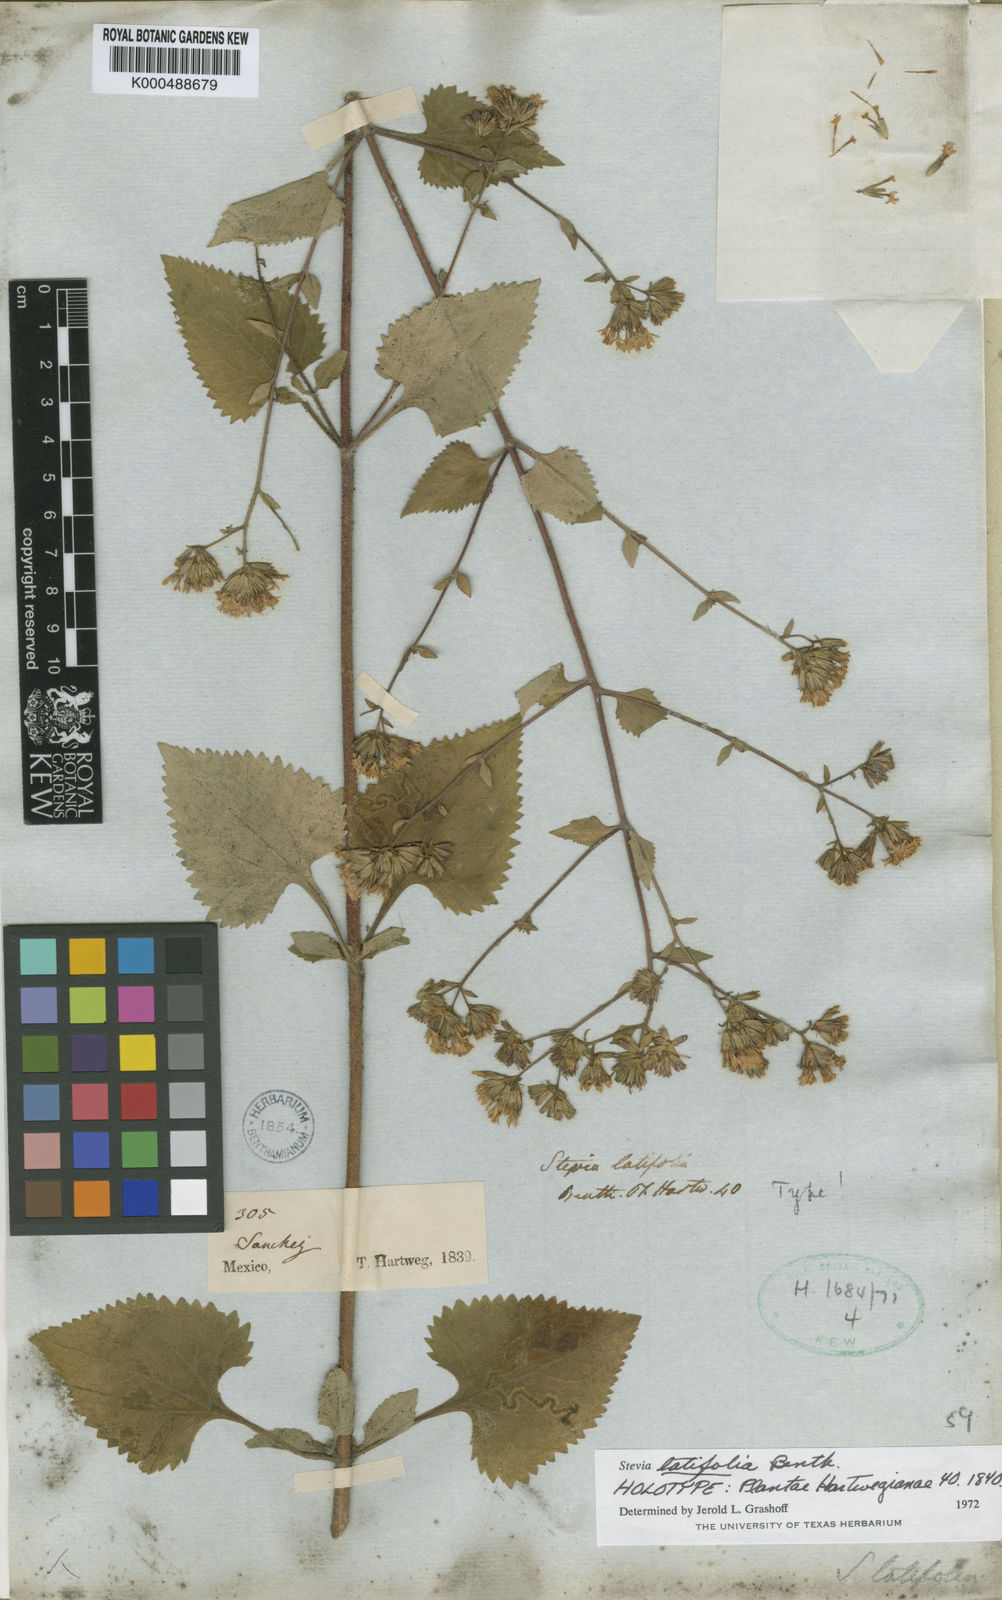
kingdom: Plantae
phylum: Tracheophyta
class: Magnoliopsida
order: Asterales
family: Asteraceae
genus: Stevia
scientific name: Stevia latifolia
